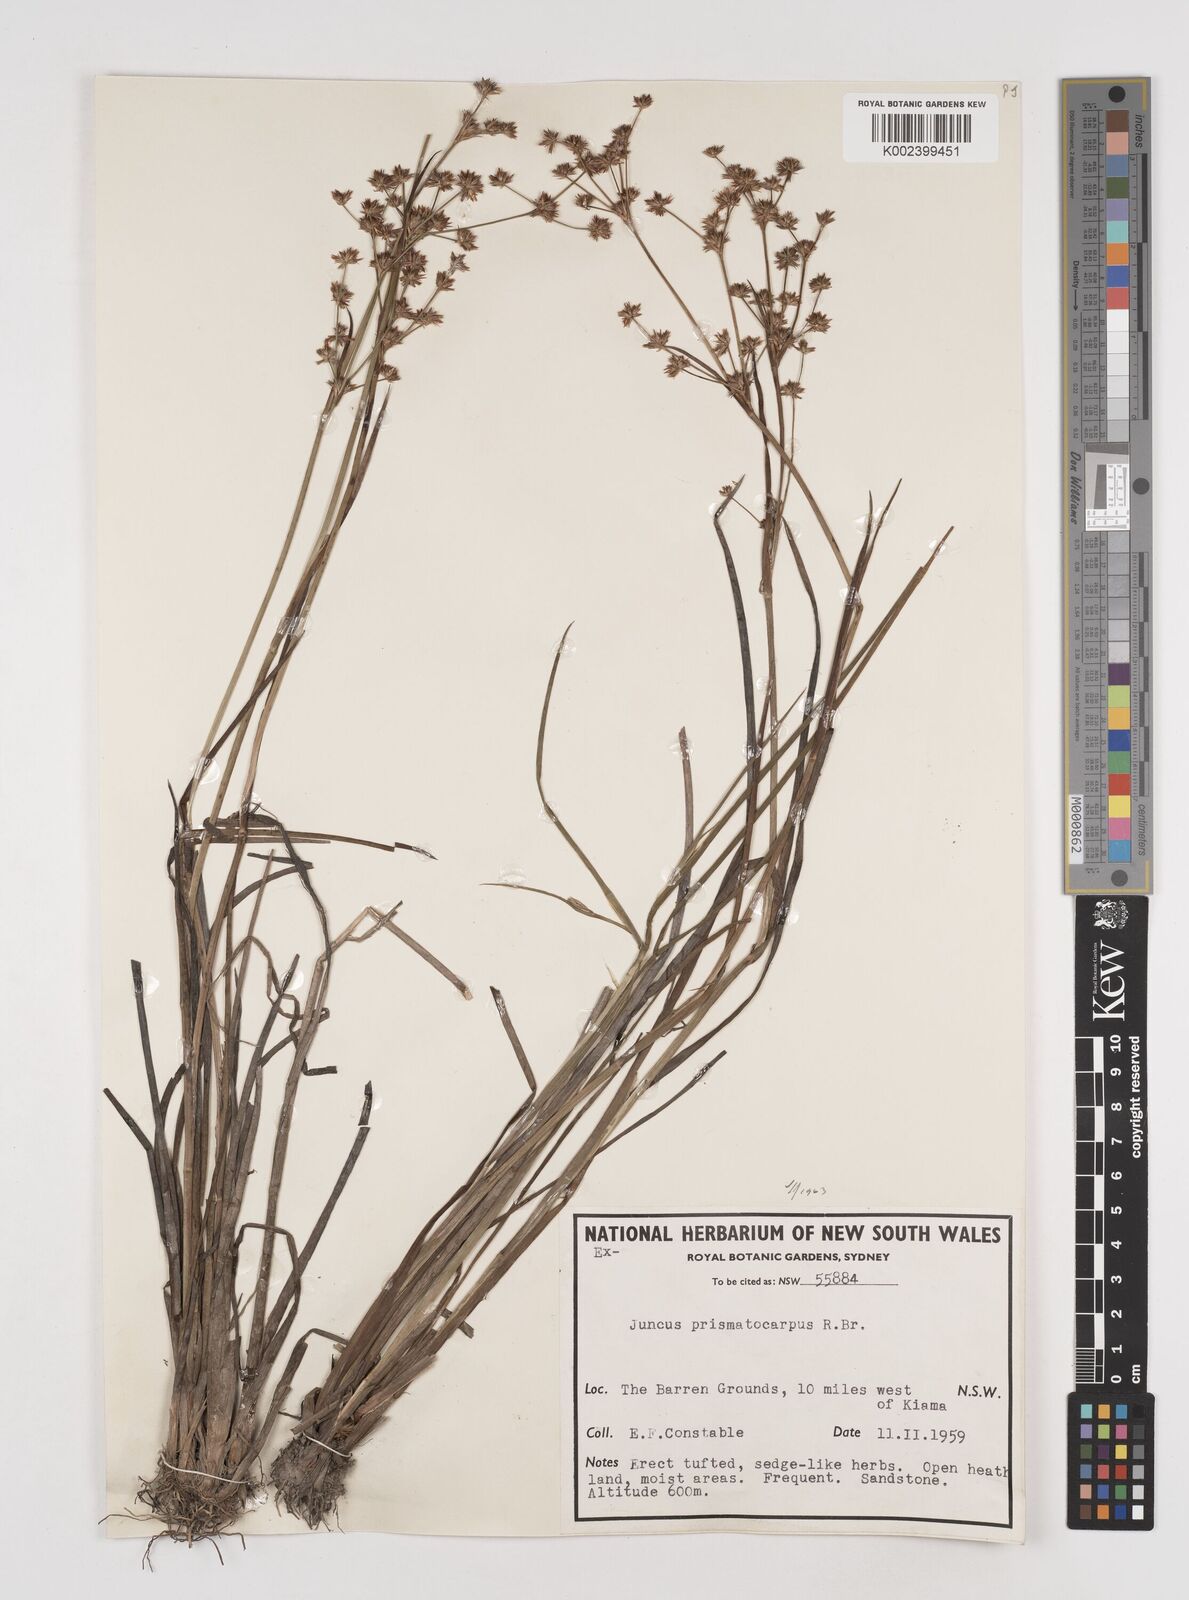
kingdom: Plantae
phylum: Tracheophyta
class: Liliopsida
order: Poales
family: Juncaceae
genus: Juncus
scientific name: Juncus prismatocarpus
